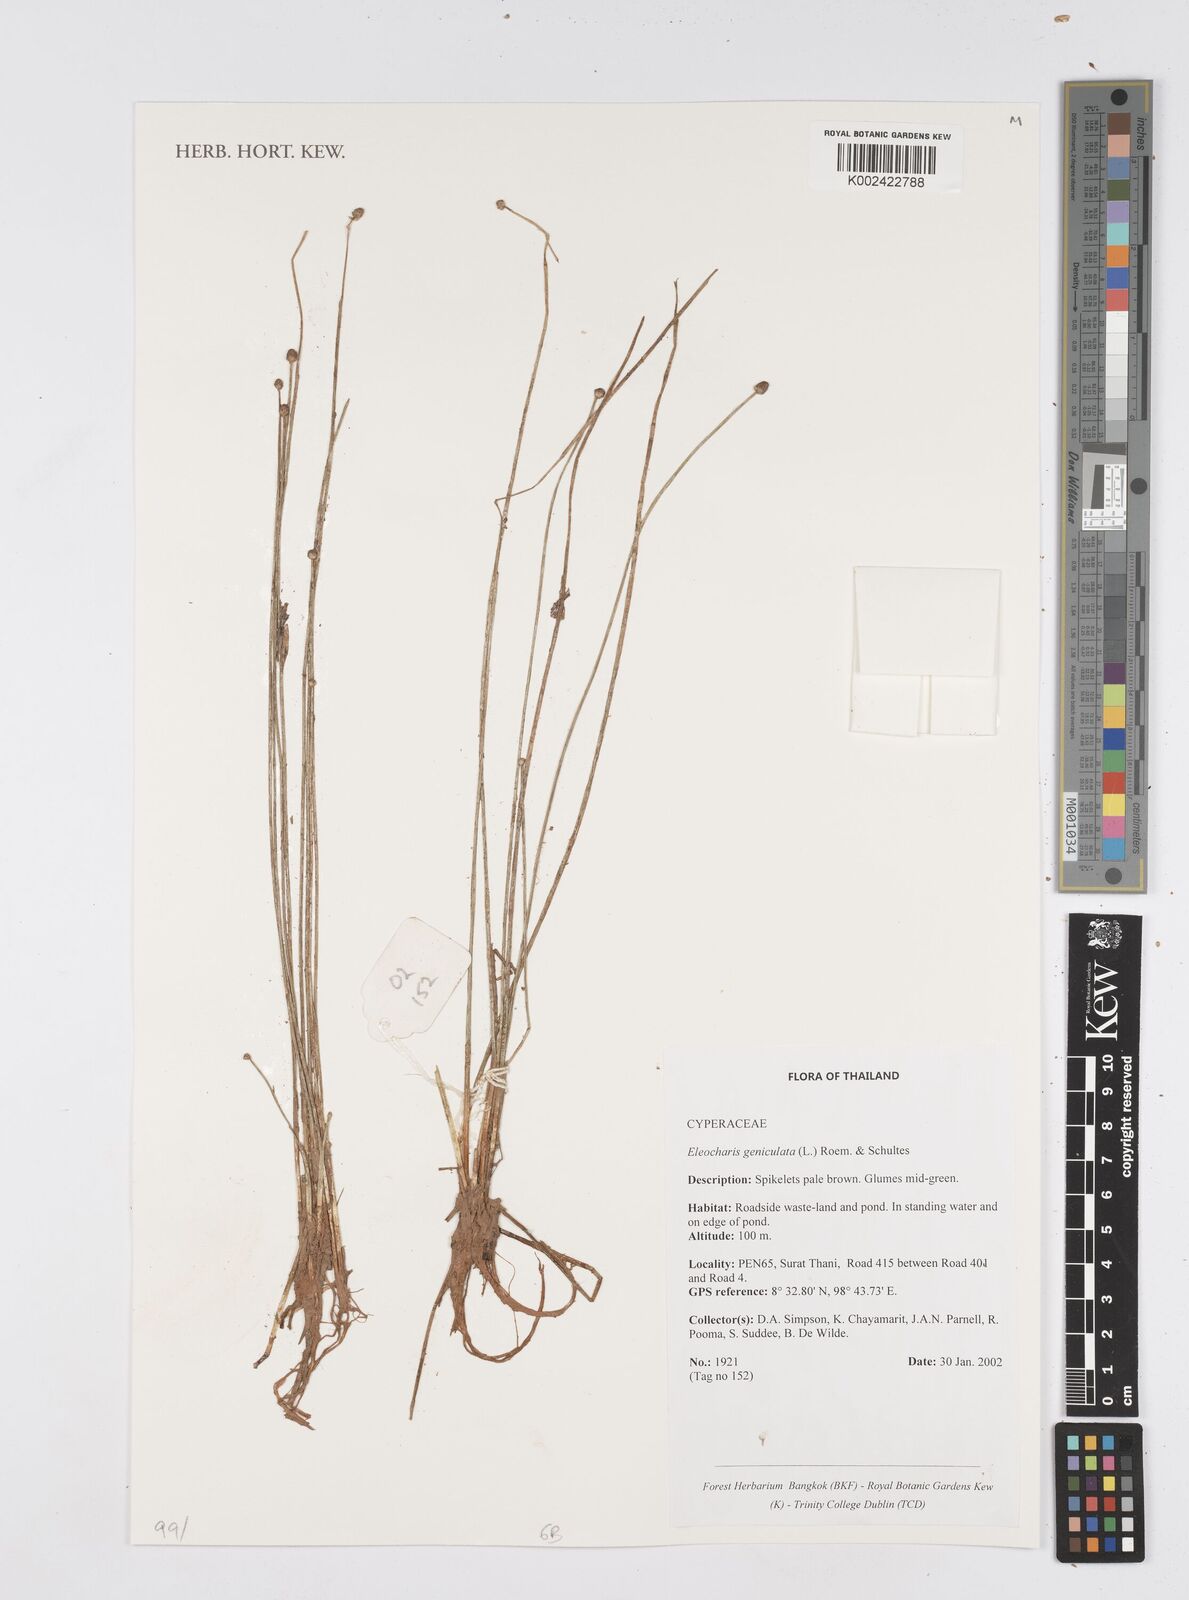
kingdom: Plantae
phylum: Tracheophyta
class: Liliopsida
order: Poales
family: Cyperaceae
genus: Eleocharis
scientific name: Eleocharis geniculata
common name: Canada spikesedge
